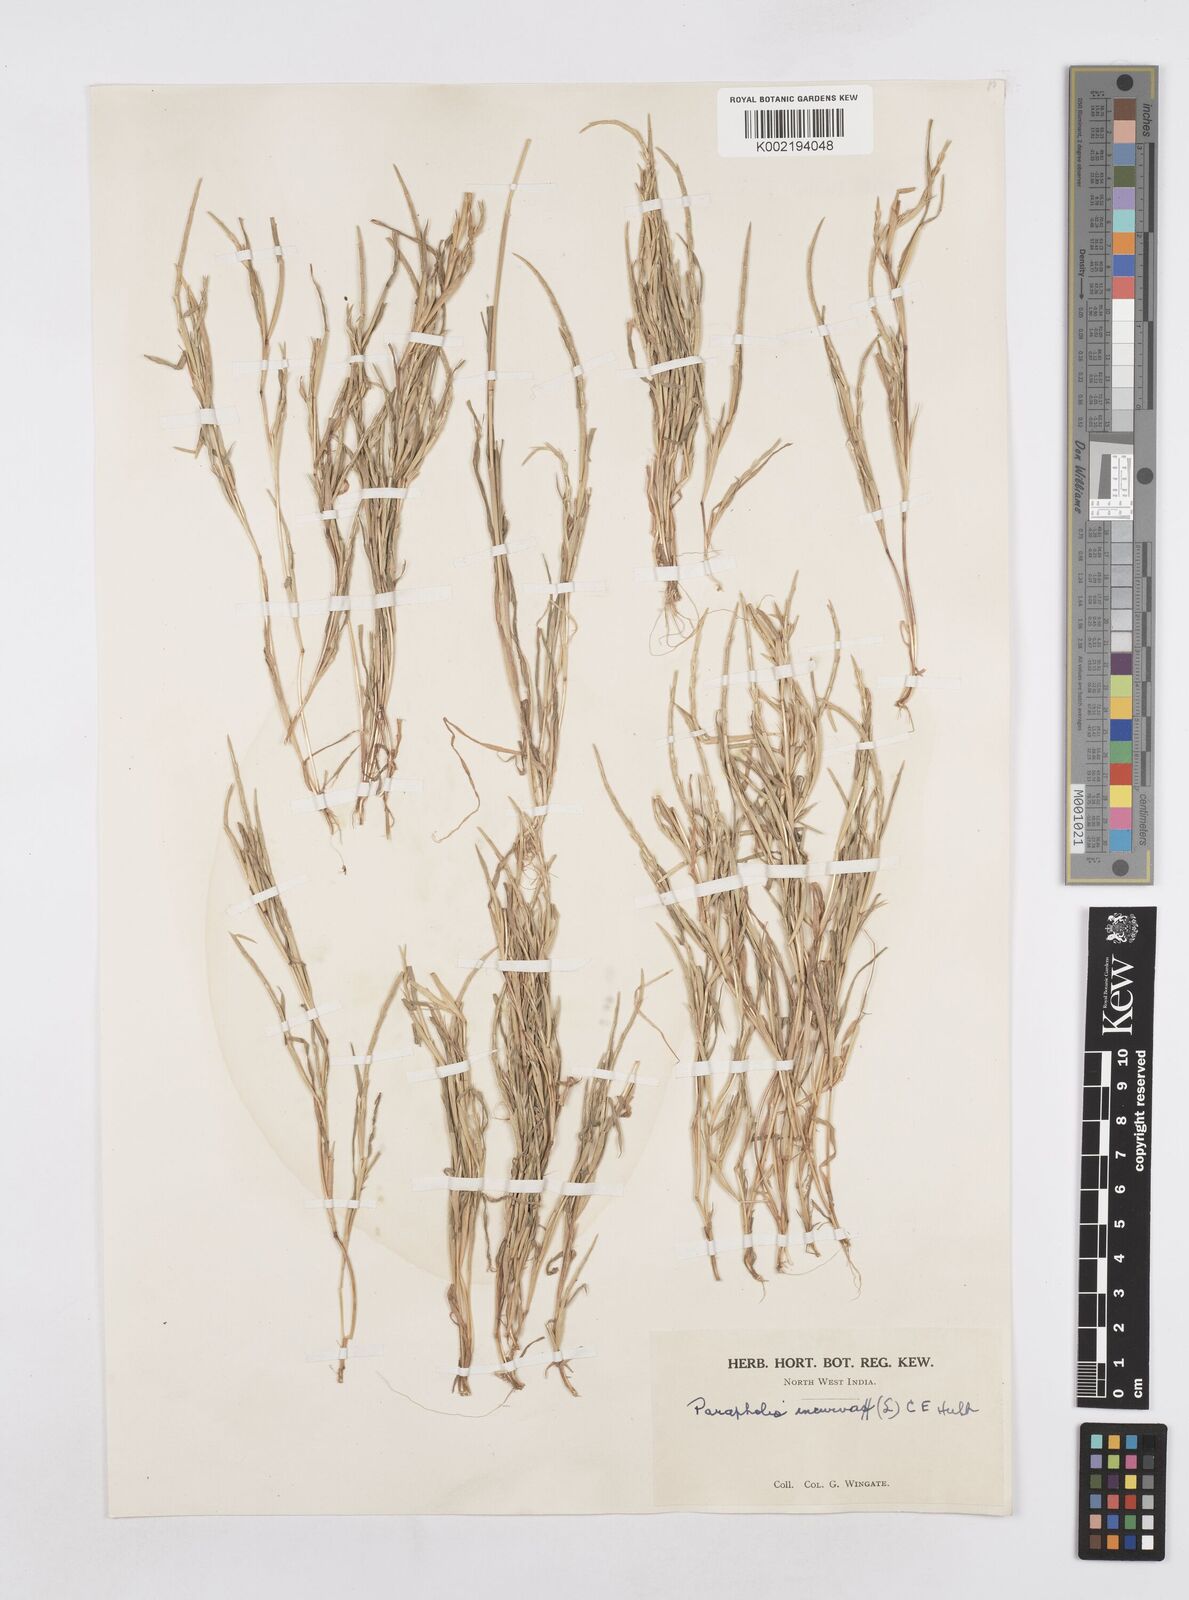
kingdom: Plantae
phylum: Tracheophyta
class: Liliopsida
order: Poales
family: Poaceae
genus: Parapholis
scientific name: Parapholis incurva
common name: Curved sicklegrass
